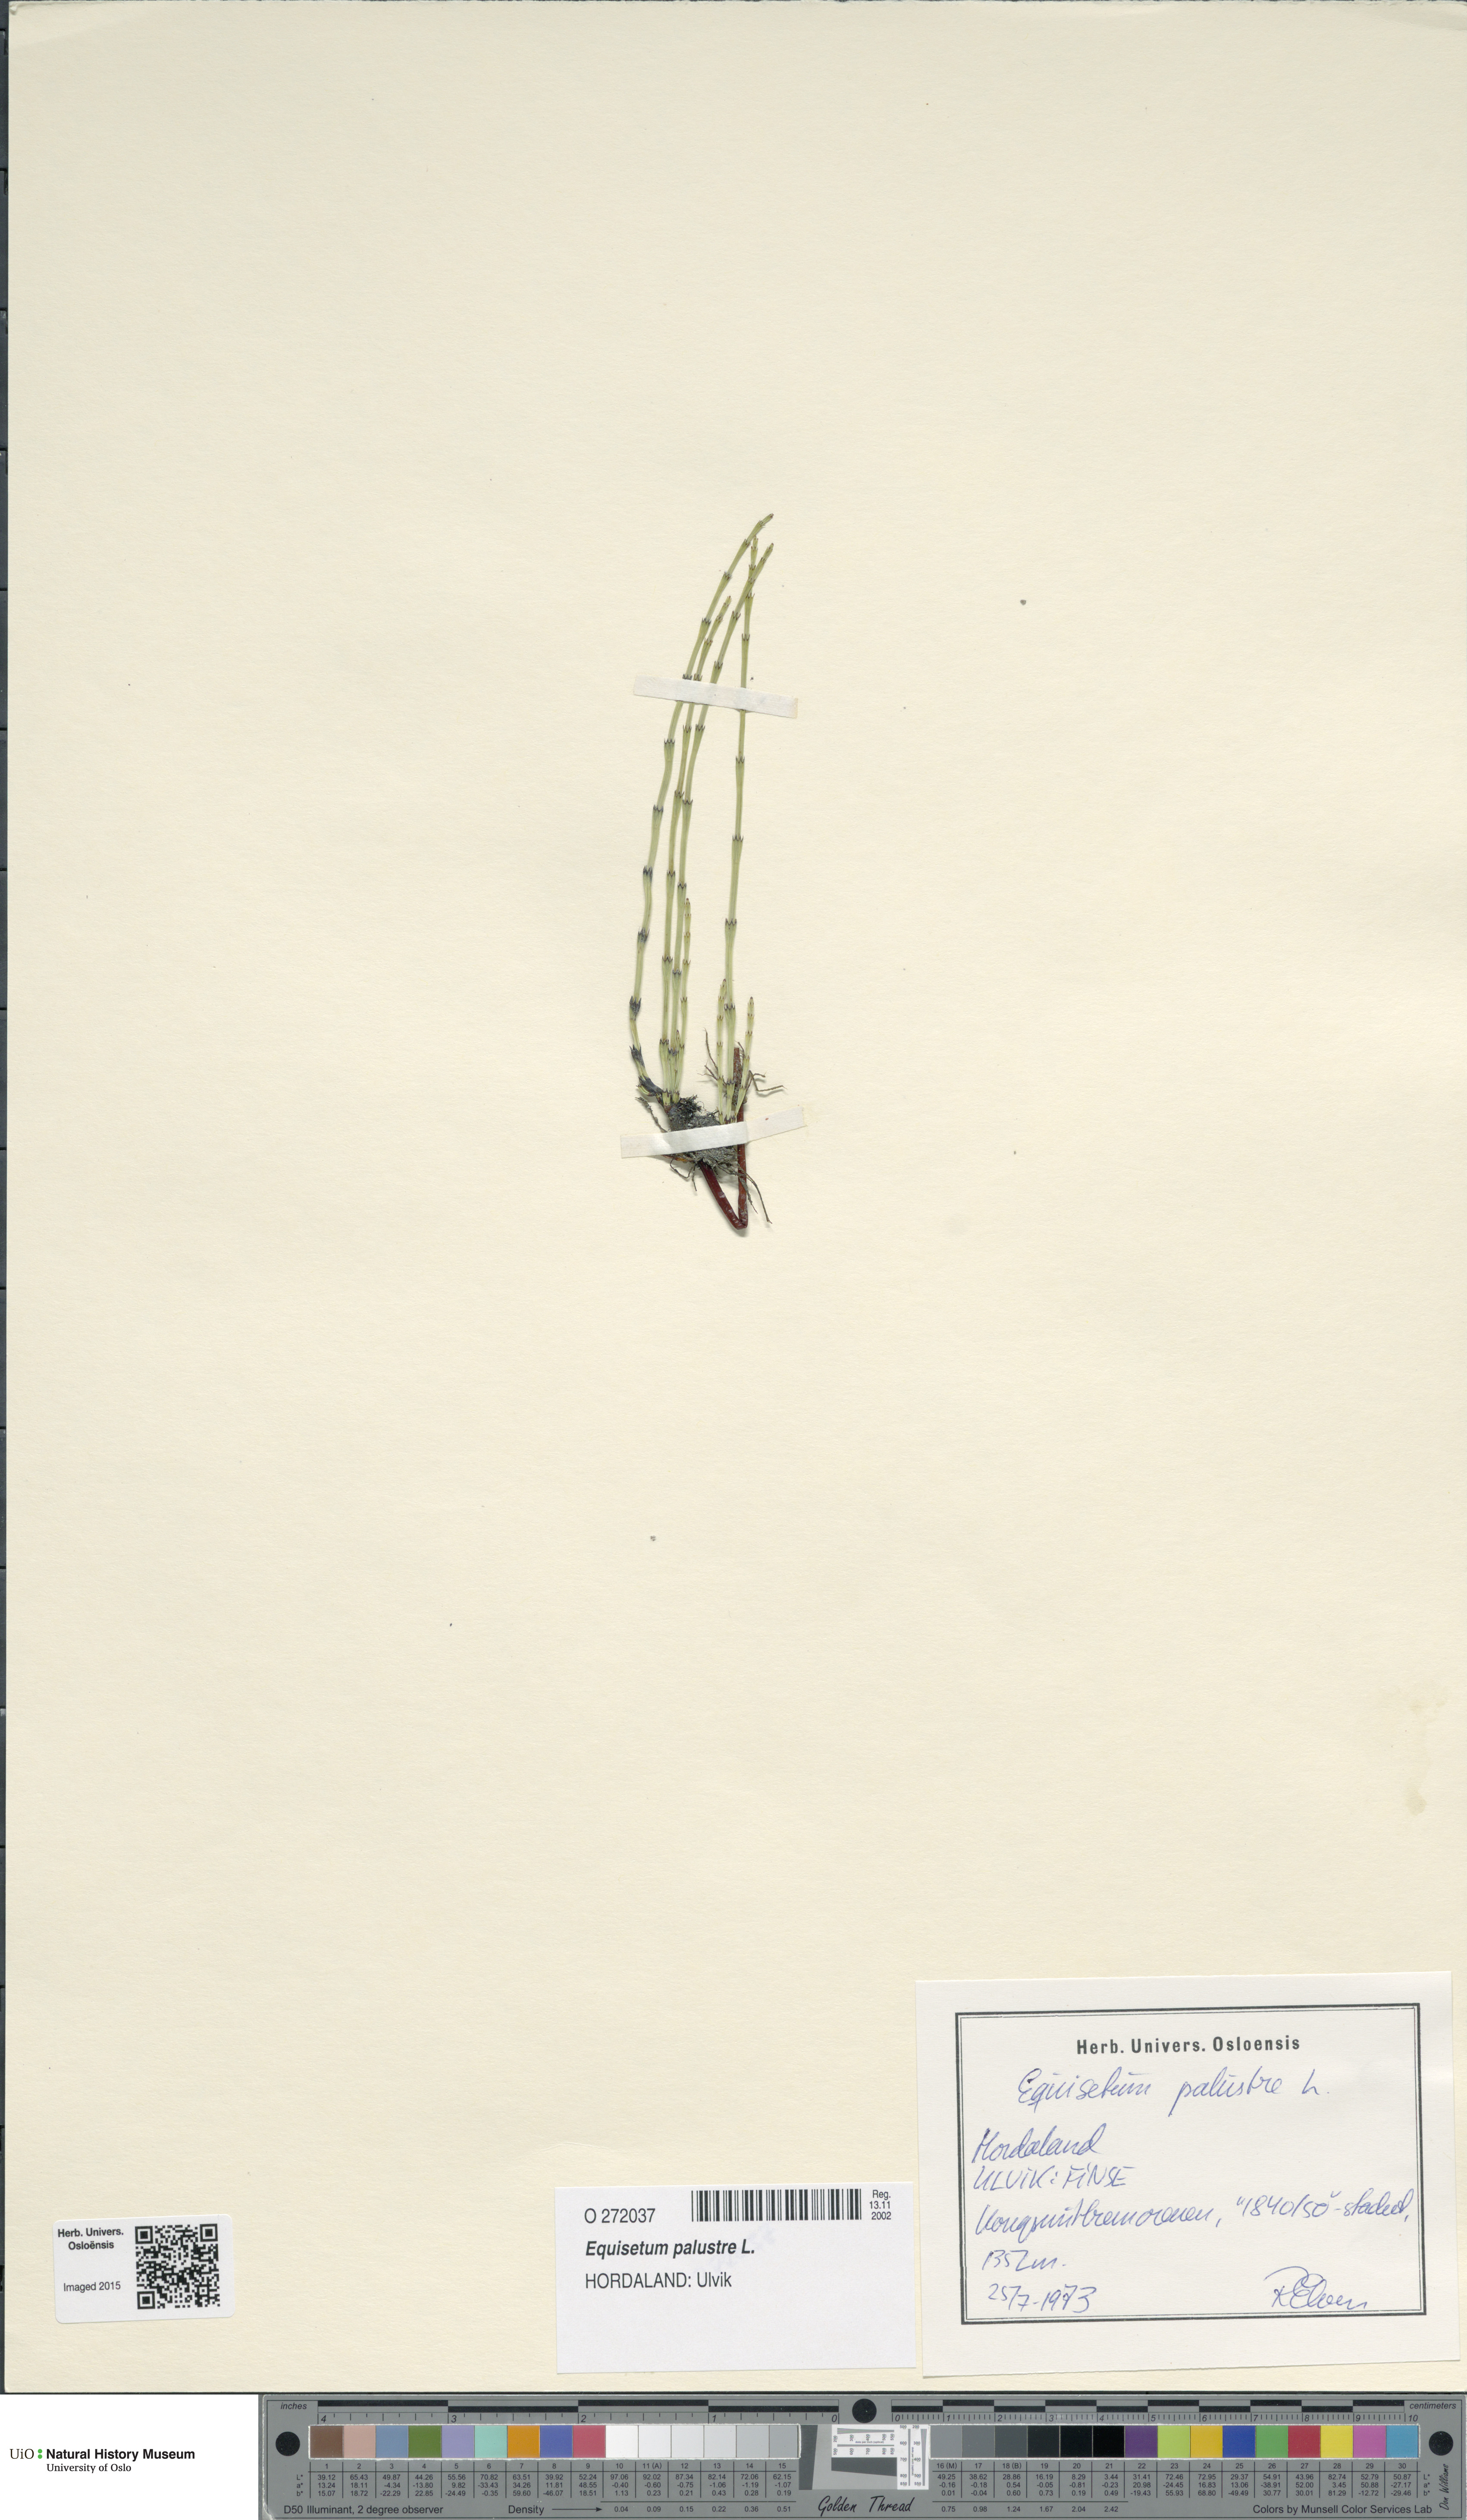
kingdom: Plantae
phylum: Tracheophyta
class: Polypodiopsida
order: Equisetales
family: Equisetaceae
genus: Equisetum
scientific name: Equisetum palustre
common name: Marsh horsetail
